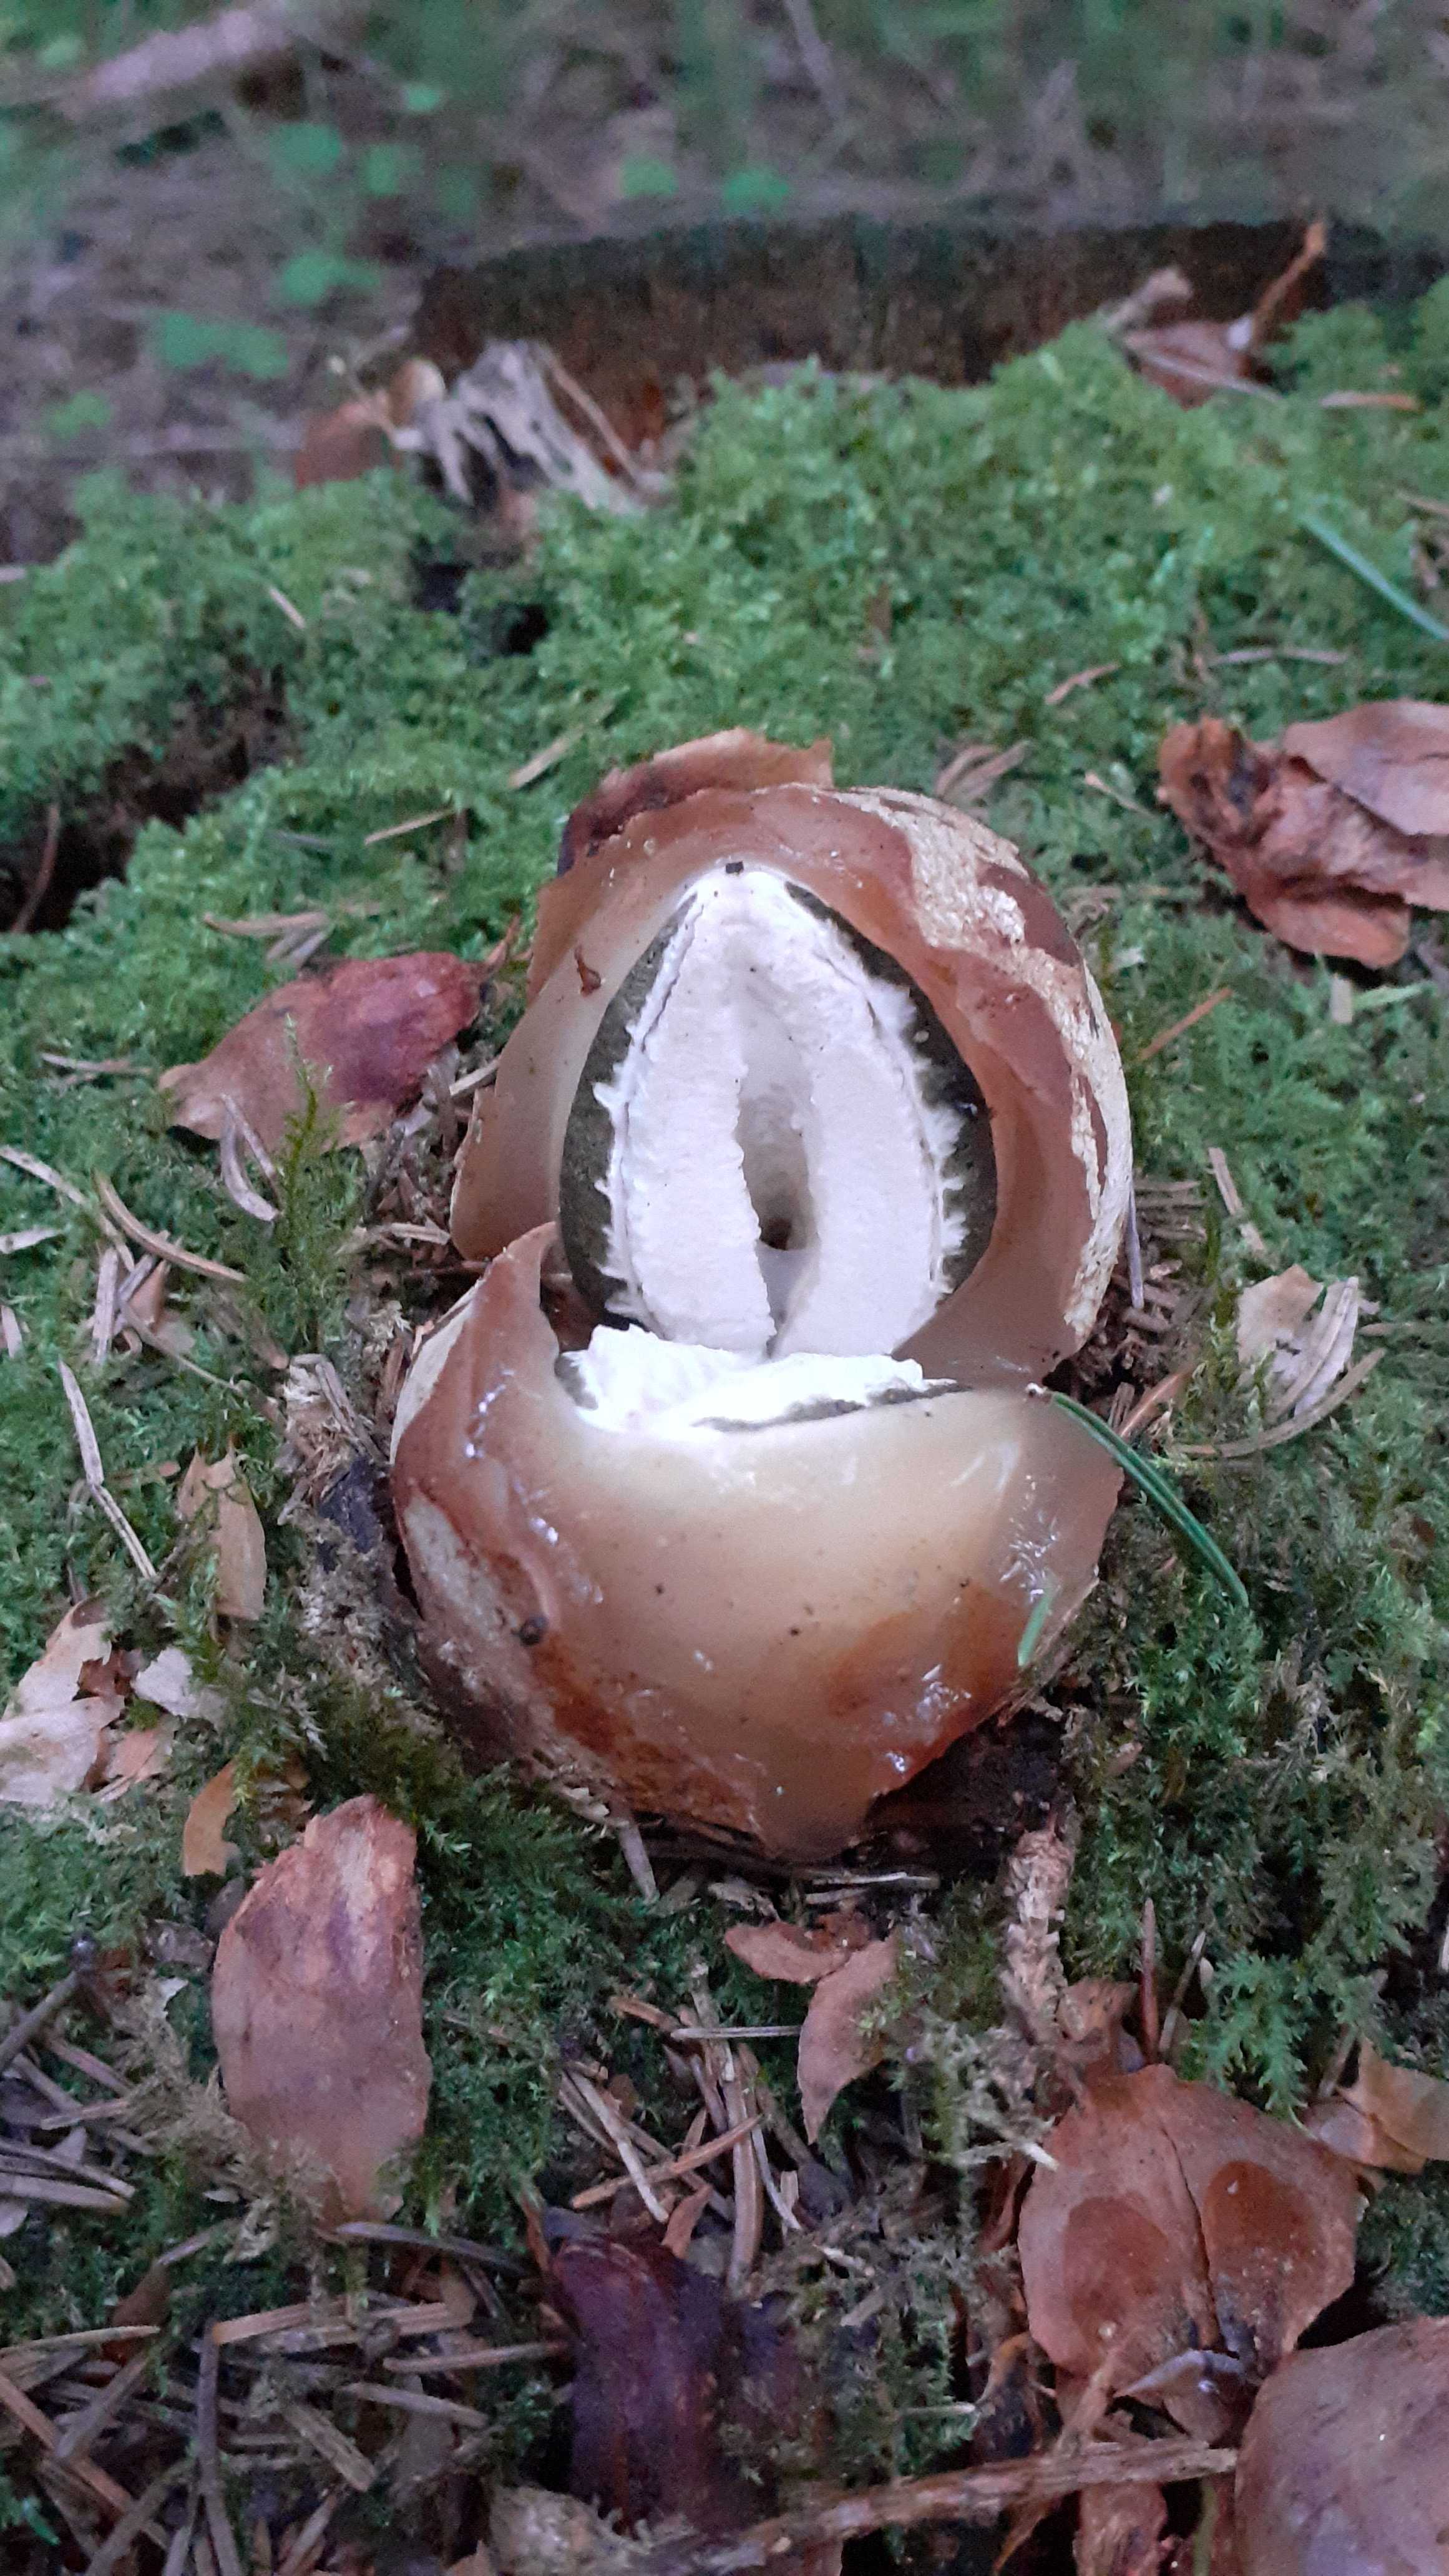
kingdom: Fungi
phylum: Basidiomycota
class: Agaricomycetes
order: Phallales
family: Phallaceae
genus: Phallus
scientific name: Phallus impudicus
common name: almindelig stinksvamp
